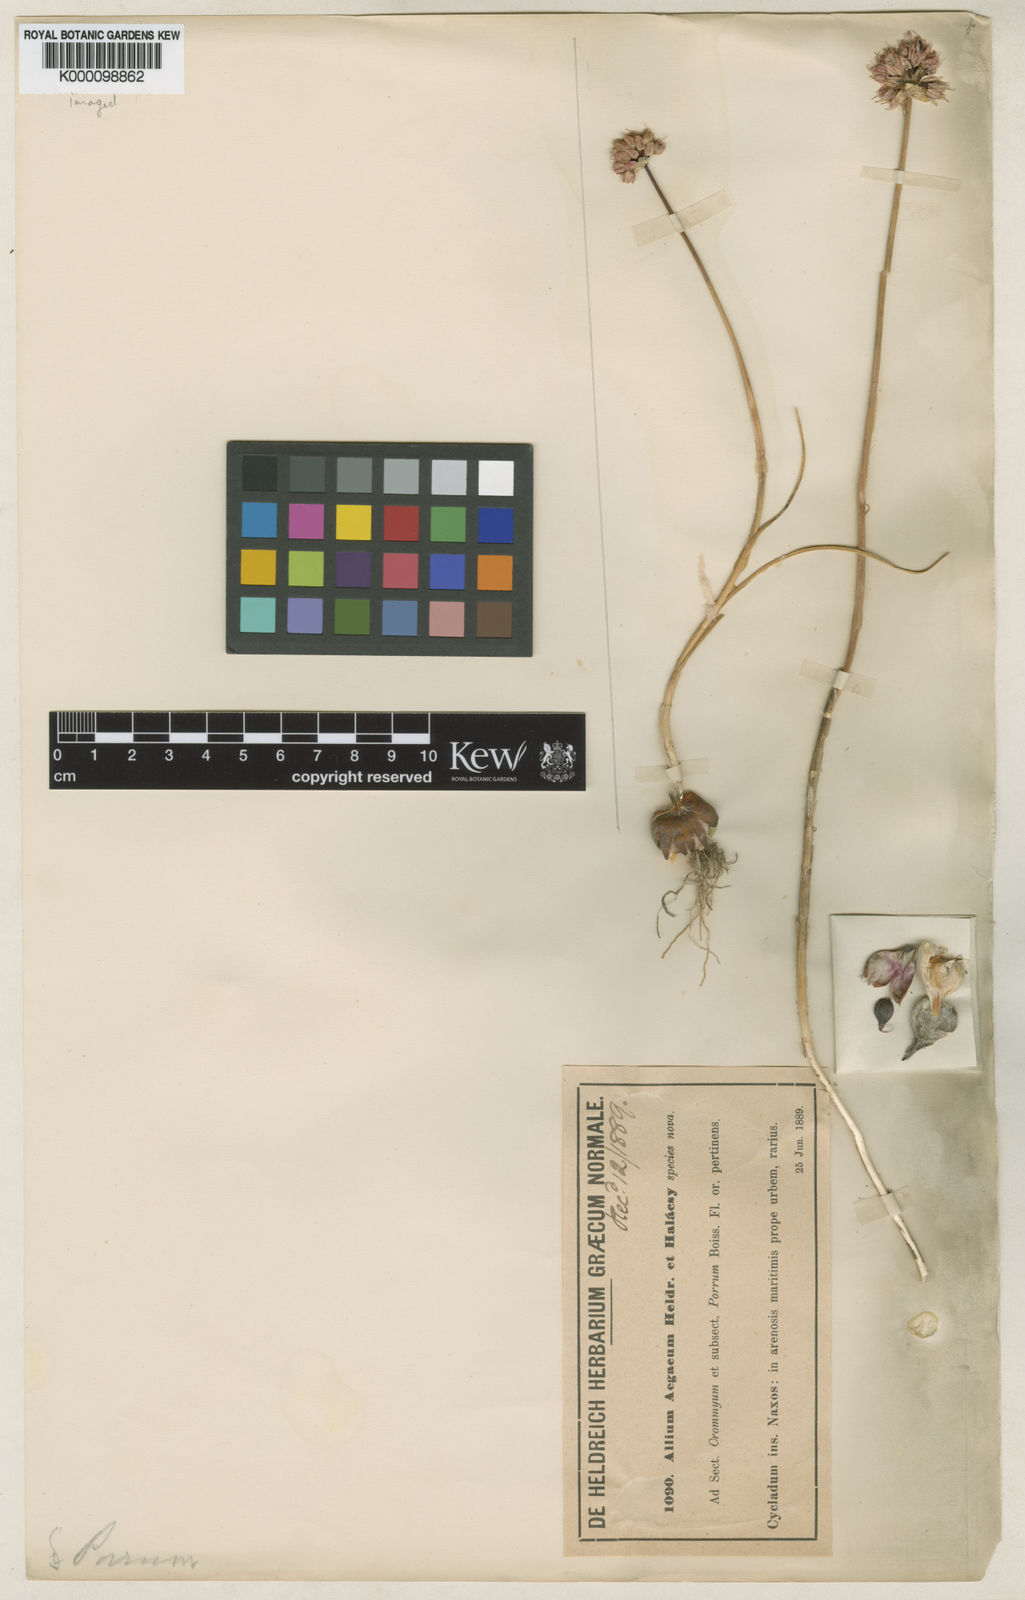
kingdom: Plantae
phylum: Tracheophyta
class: Liliopsida
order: Asparagales
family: Amaryllidaceae
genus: Allium
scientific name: Allium sphaerocephalon
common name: Round-headed leek
